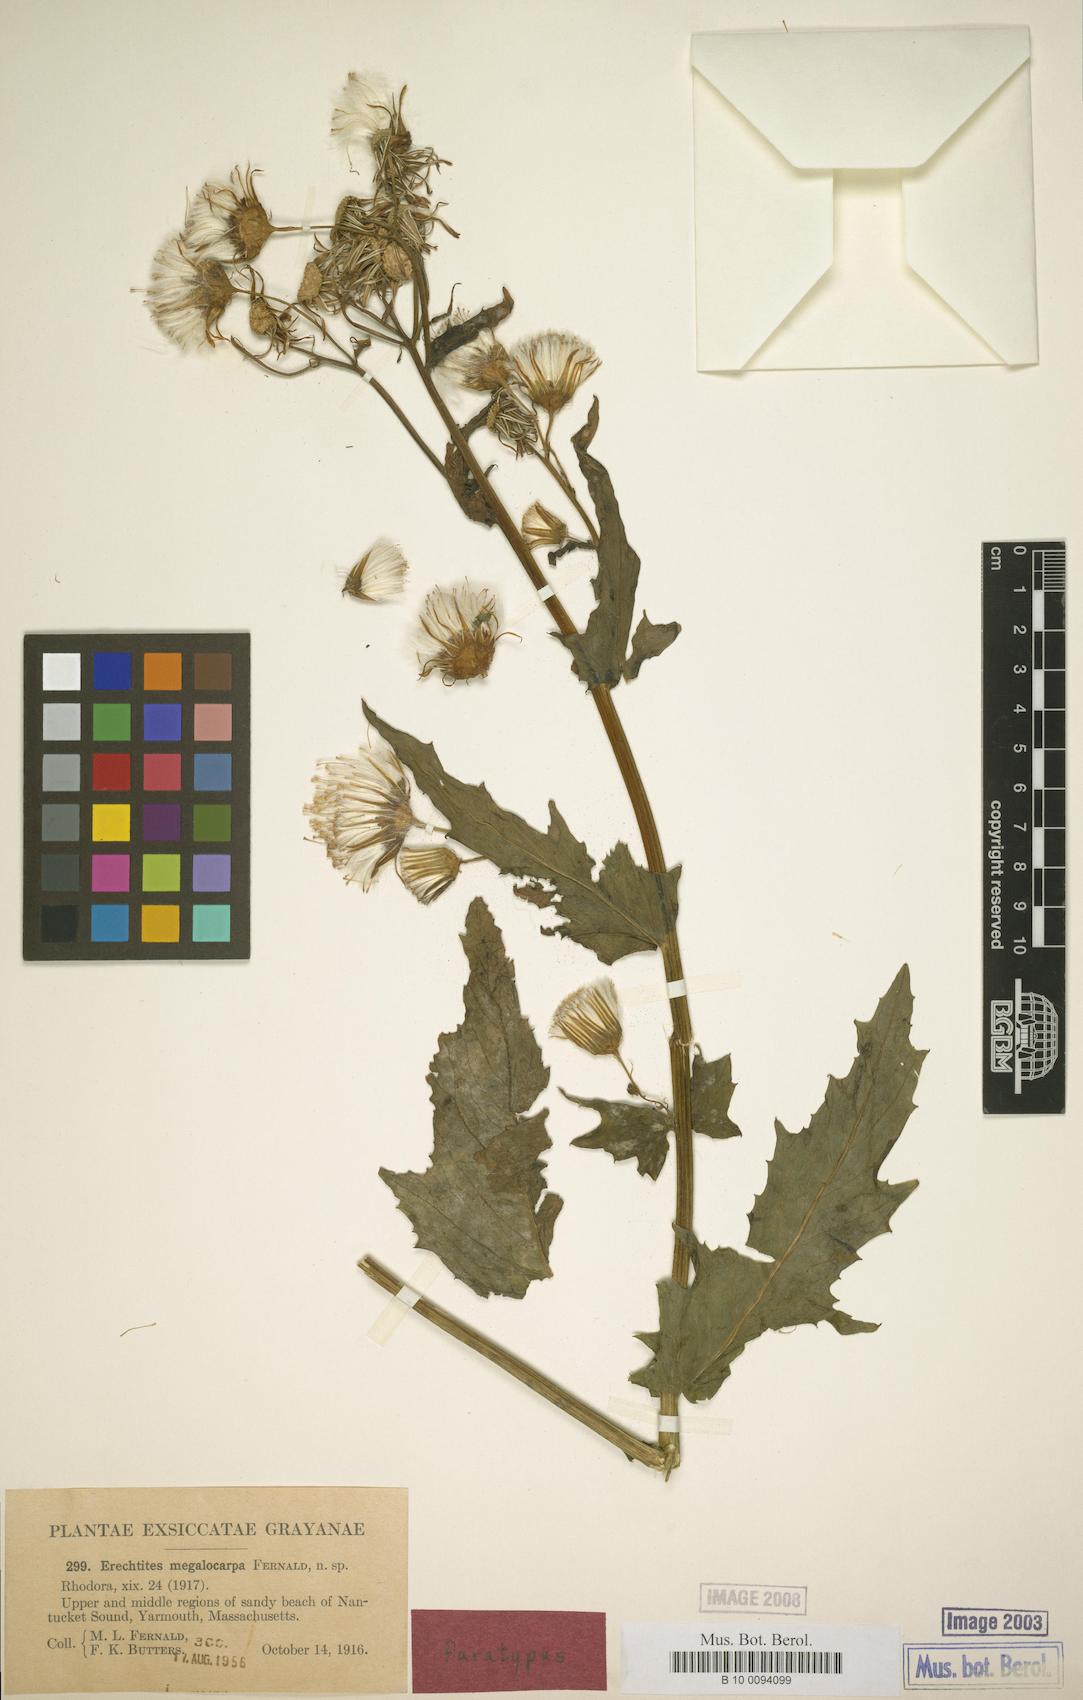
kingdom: Plantae
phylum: Tracheophyta
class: Magnoliopsida
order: Asterales
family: Asteraceae
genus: Erechtites
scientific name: Erechtites hieraciifolius
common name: American burnweed
